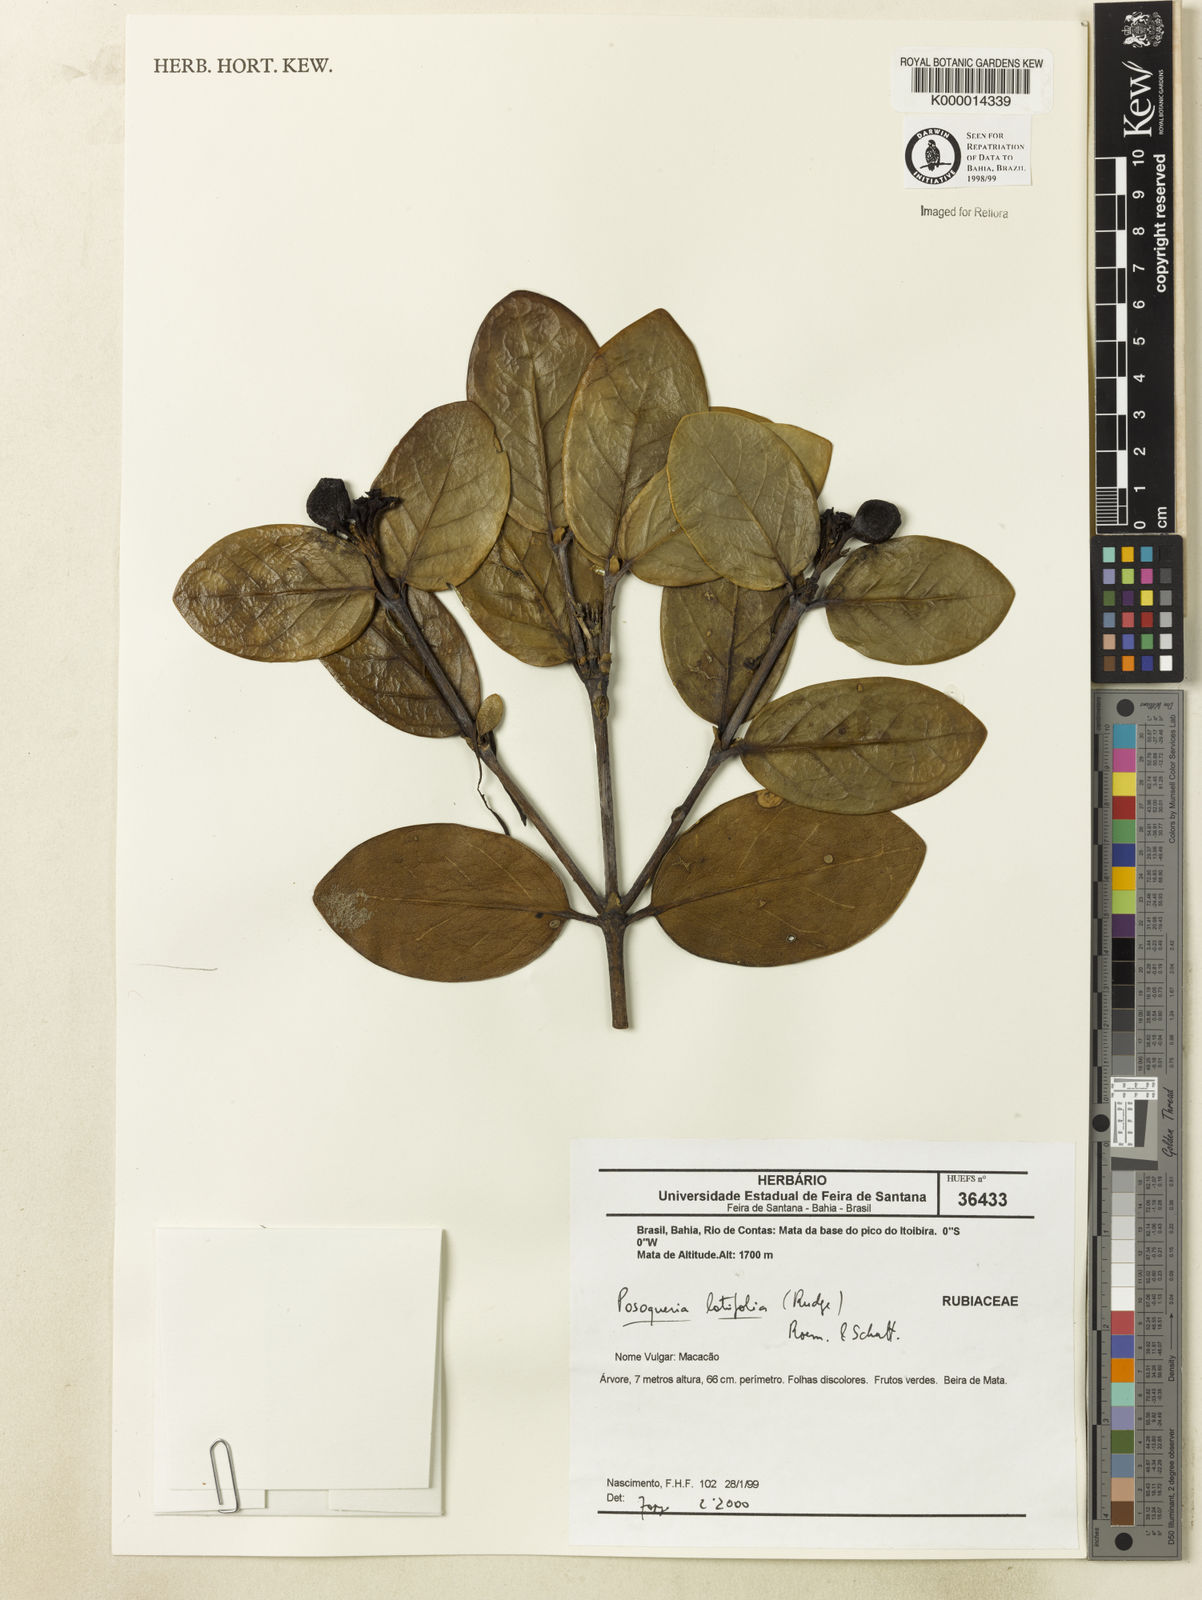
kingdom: Plantae
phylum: Tracheophyta
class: Magnoliopsida
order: Gentianales
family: Rubiaceae
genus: Posoqueria
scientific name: Posoqueria latifolia
